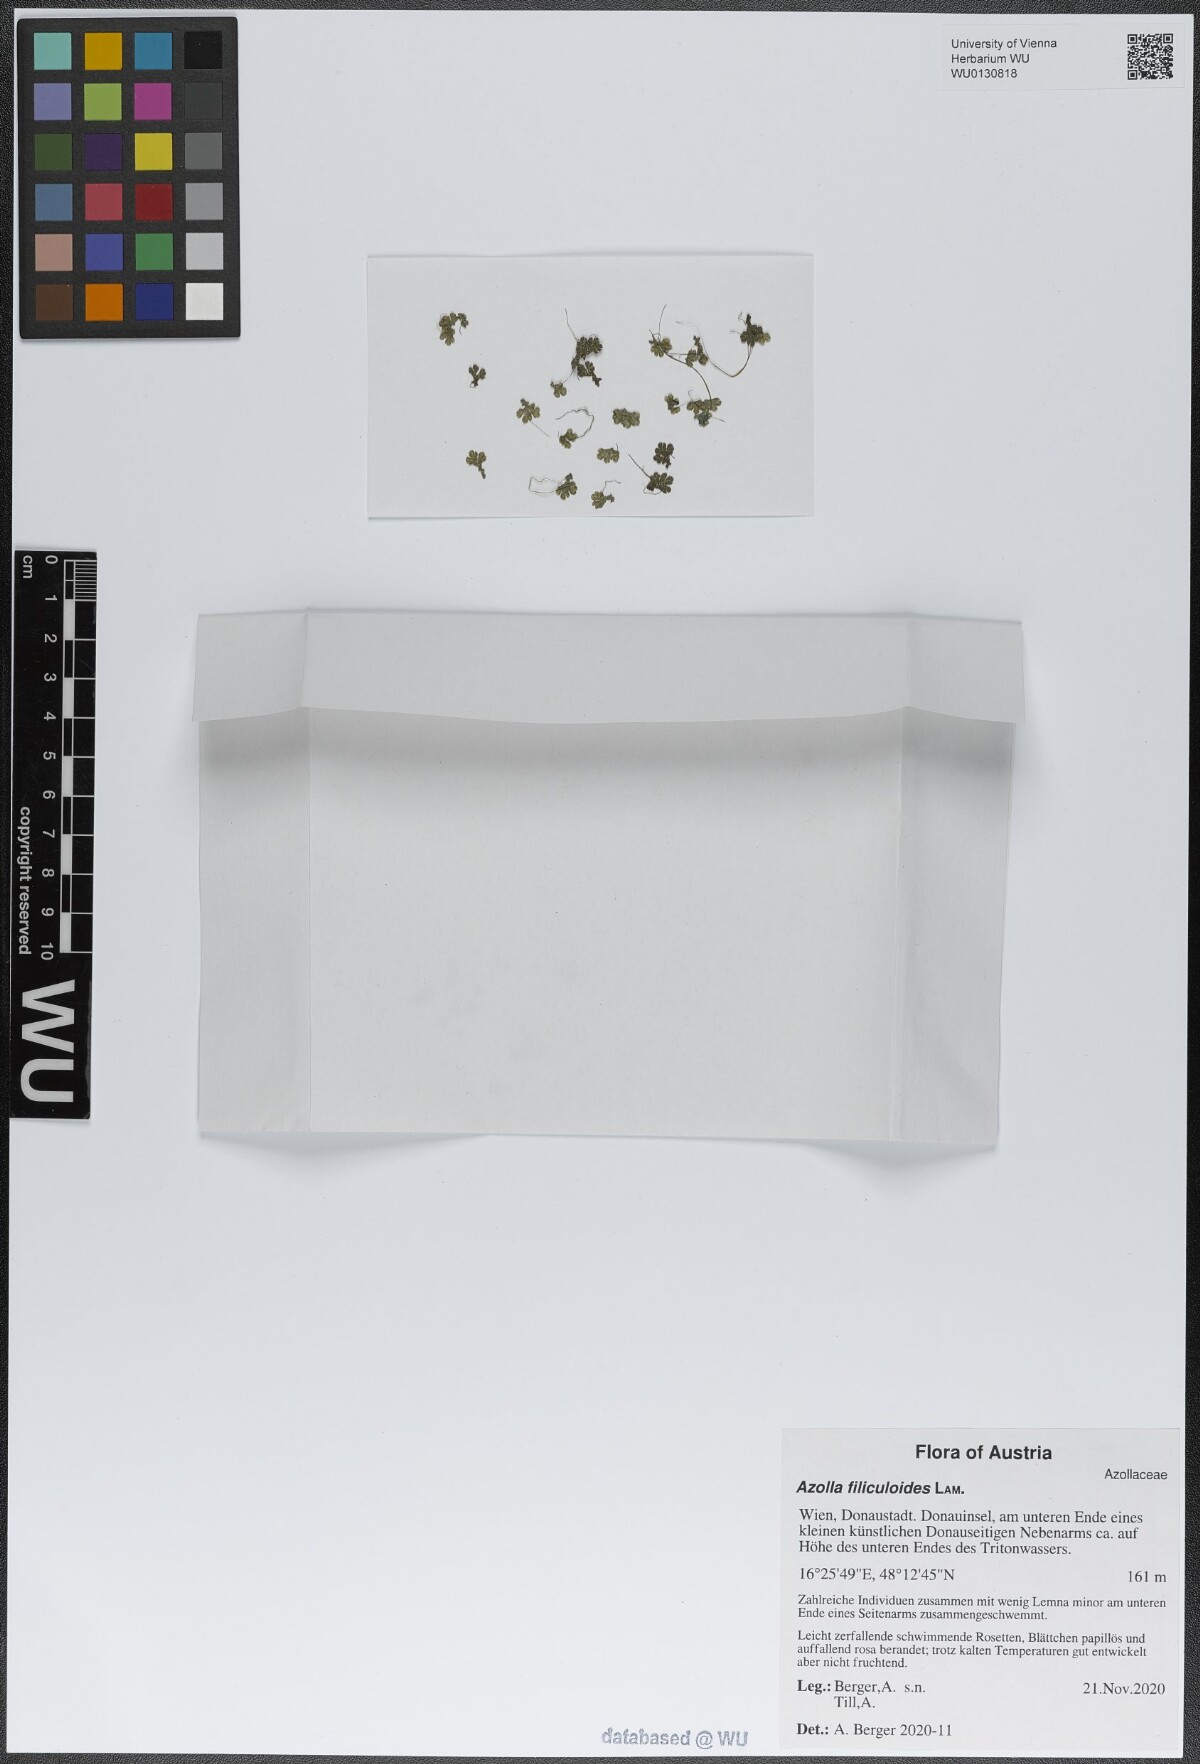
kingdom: Plantae
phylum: Tracheophyta
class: Polypodiopsida
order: Salviniales
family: Salviniaceae
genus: Azolla
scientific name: Azolla filiculoides
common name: Water fern
